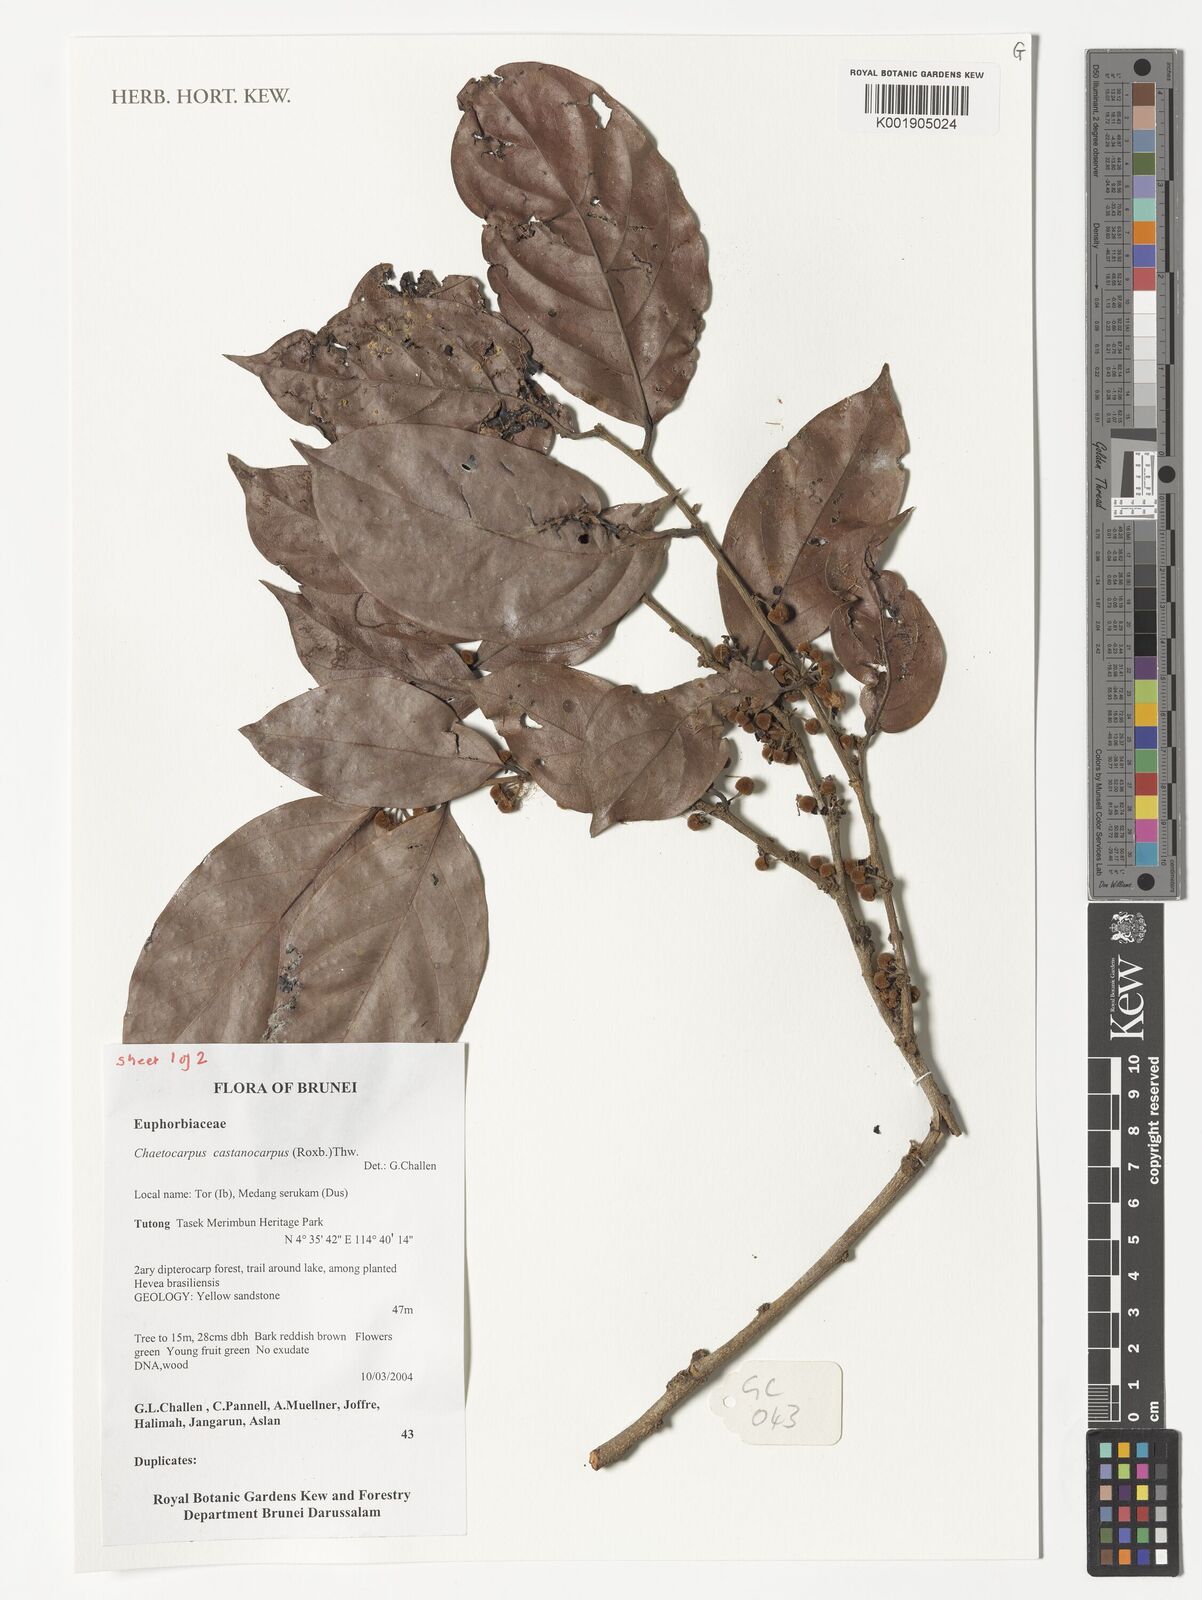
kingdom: Plantae
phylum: Tracheophyta
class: Magnoliopsida
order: Malpighiales
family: Peraceae
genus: Chaetocarpus
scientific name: Chaetocarpus castanocarpus
